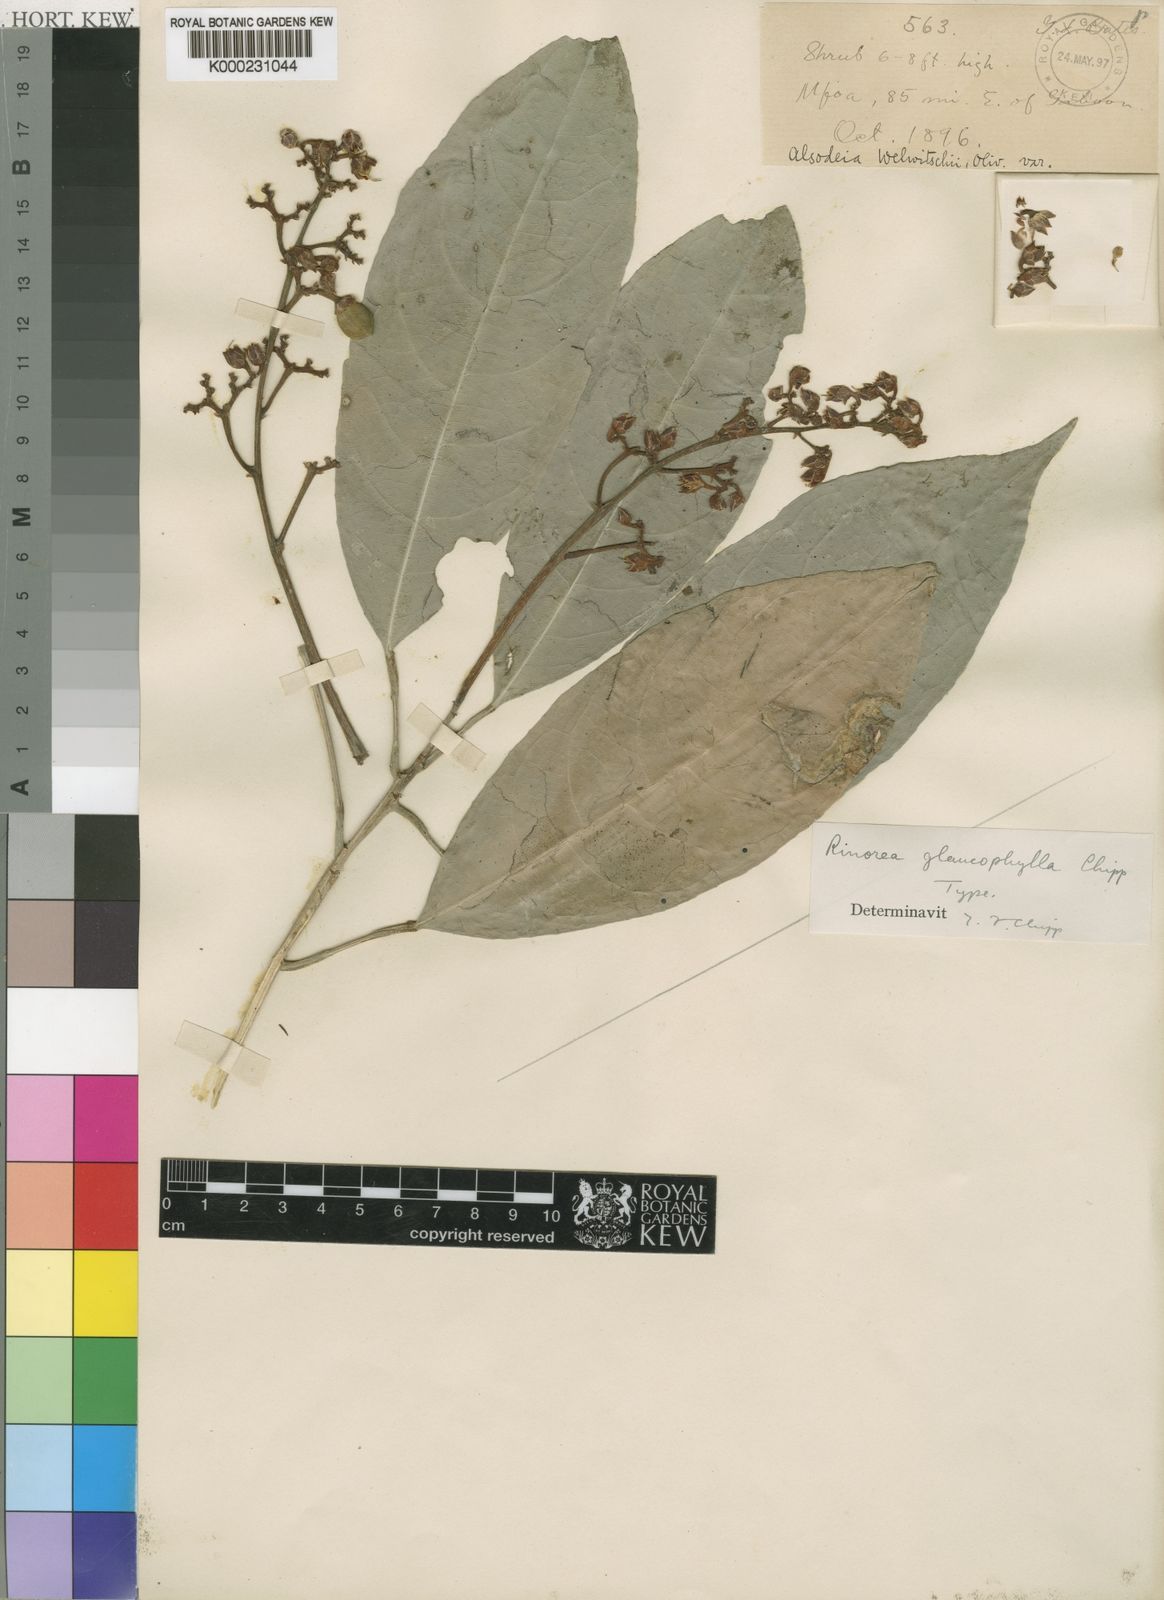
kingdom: Plantae
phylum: Tracheophyta
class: Magnoliopsida
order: Malpighiales
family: Violaceae
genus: Rinorea
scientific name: Rinorea welwitschii
